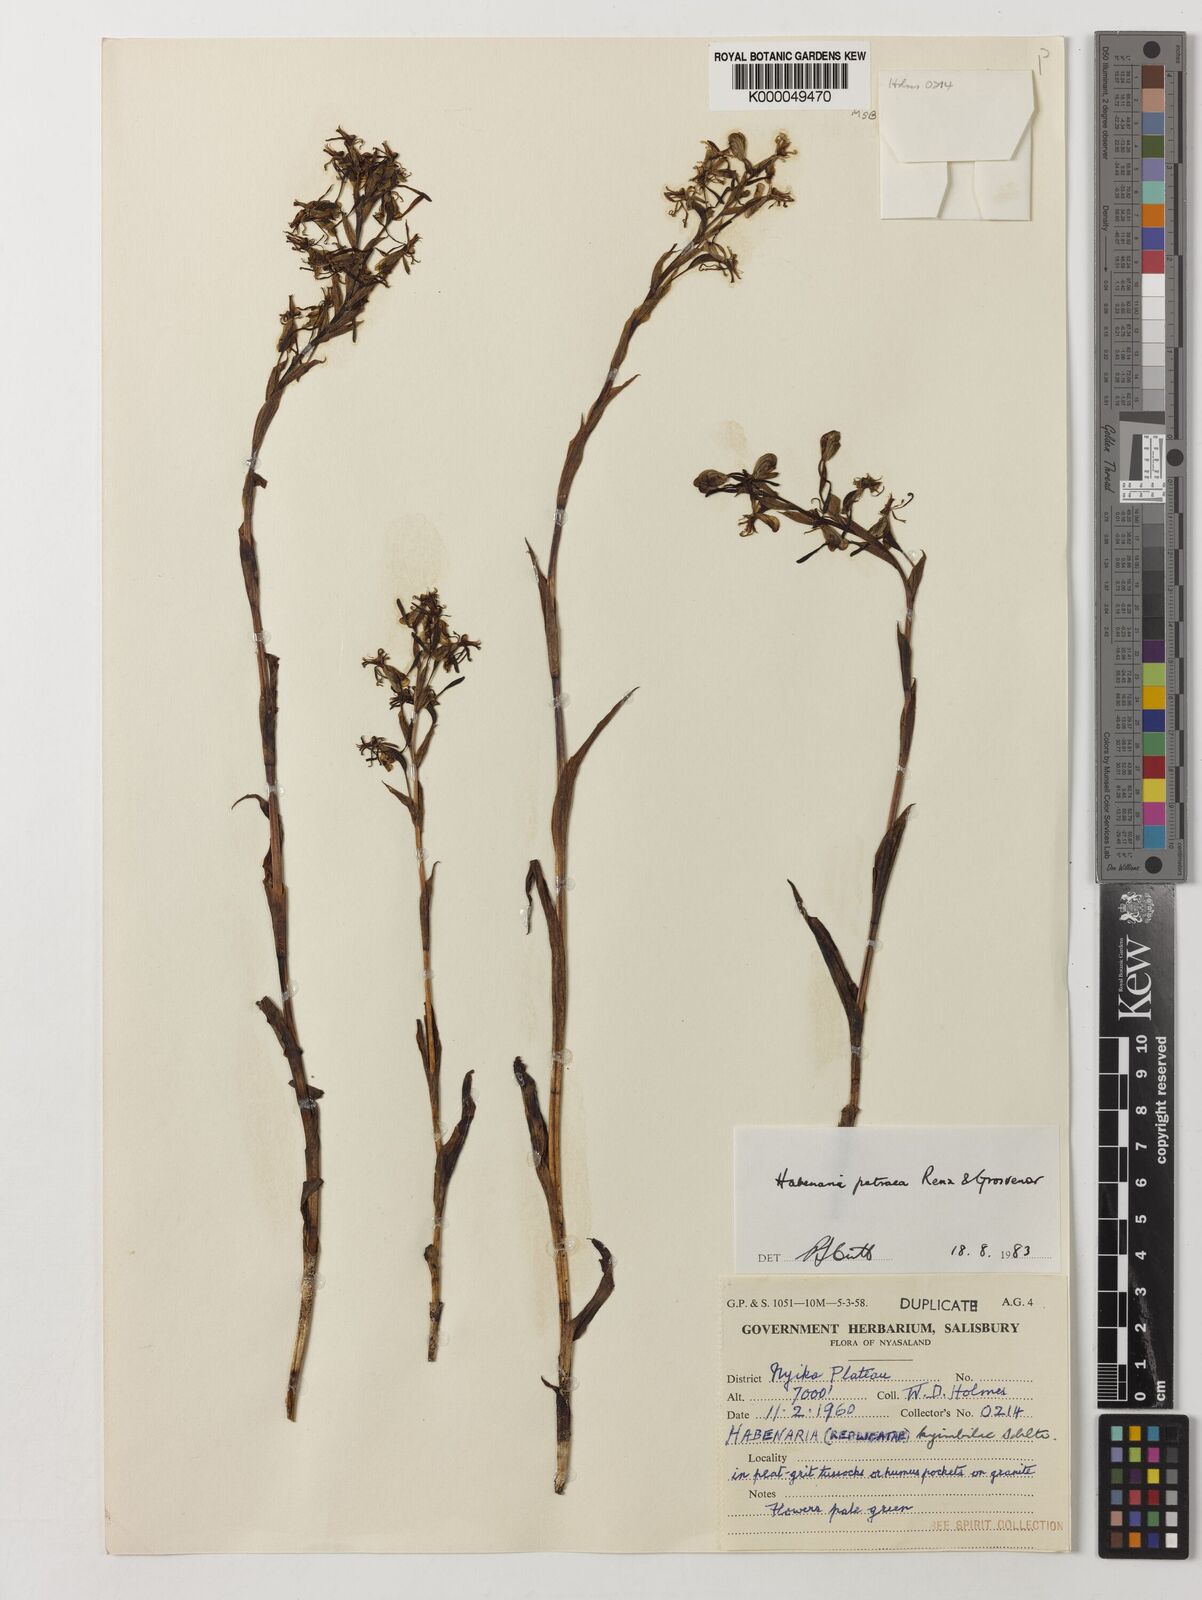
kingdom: Plantae
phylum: Tracheophyta
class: Liliopsida
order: Asparagales
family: Orchidaceae
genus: Habenaria
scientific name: Habenaria petraea
